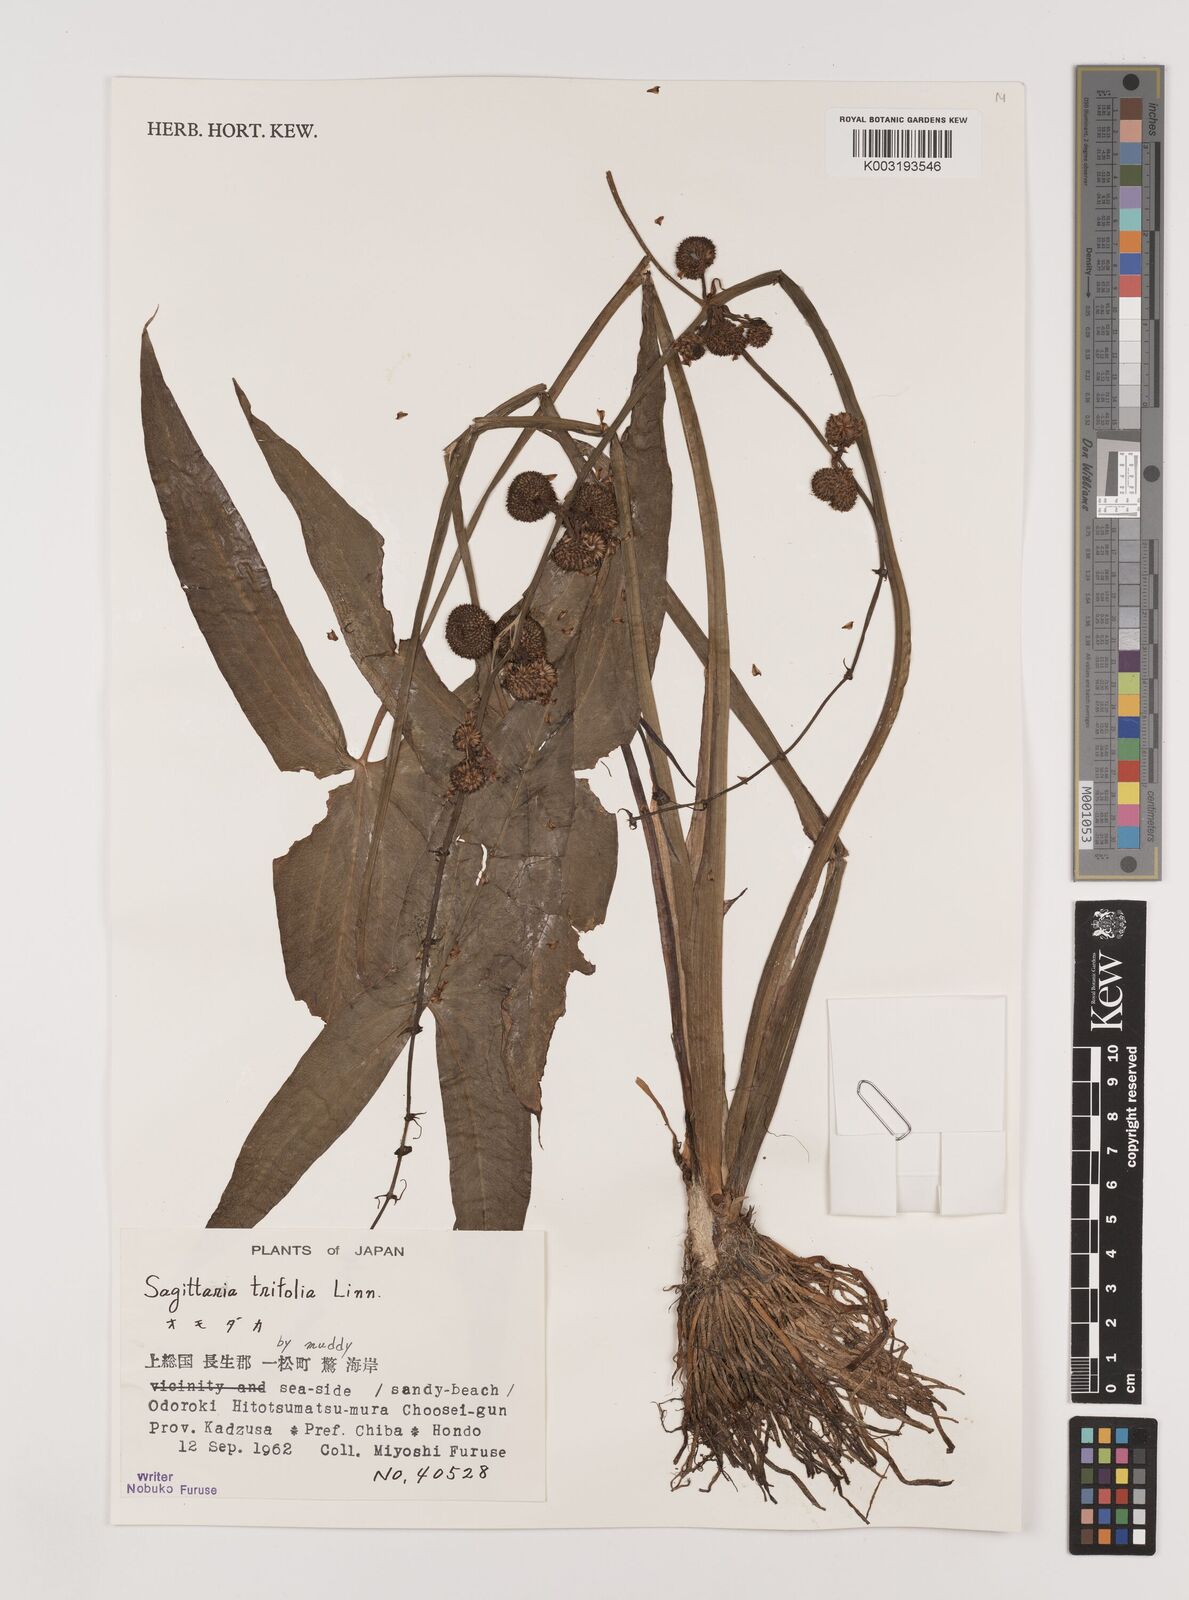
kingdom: Plantae
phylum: Tracheophyta
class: Liliopsida
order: Alismatales
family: Alismataceae
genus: Sagittaria
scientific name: Sagittaria trifolia
